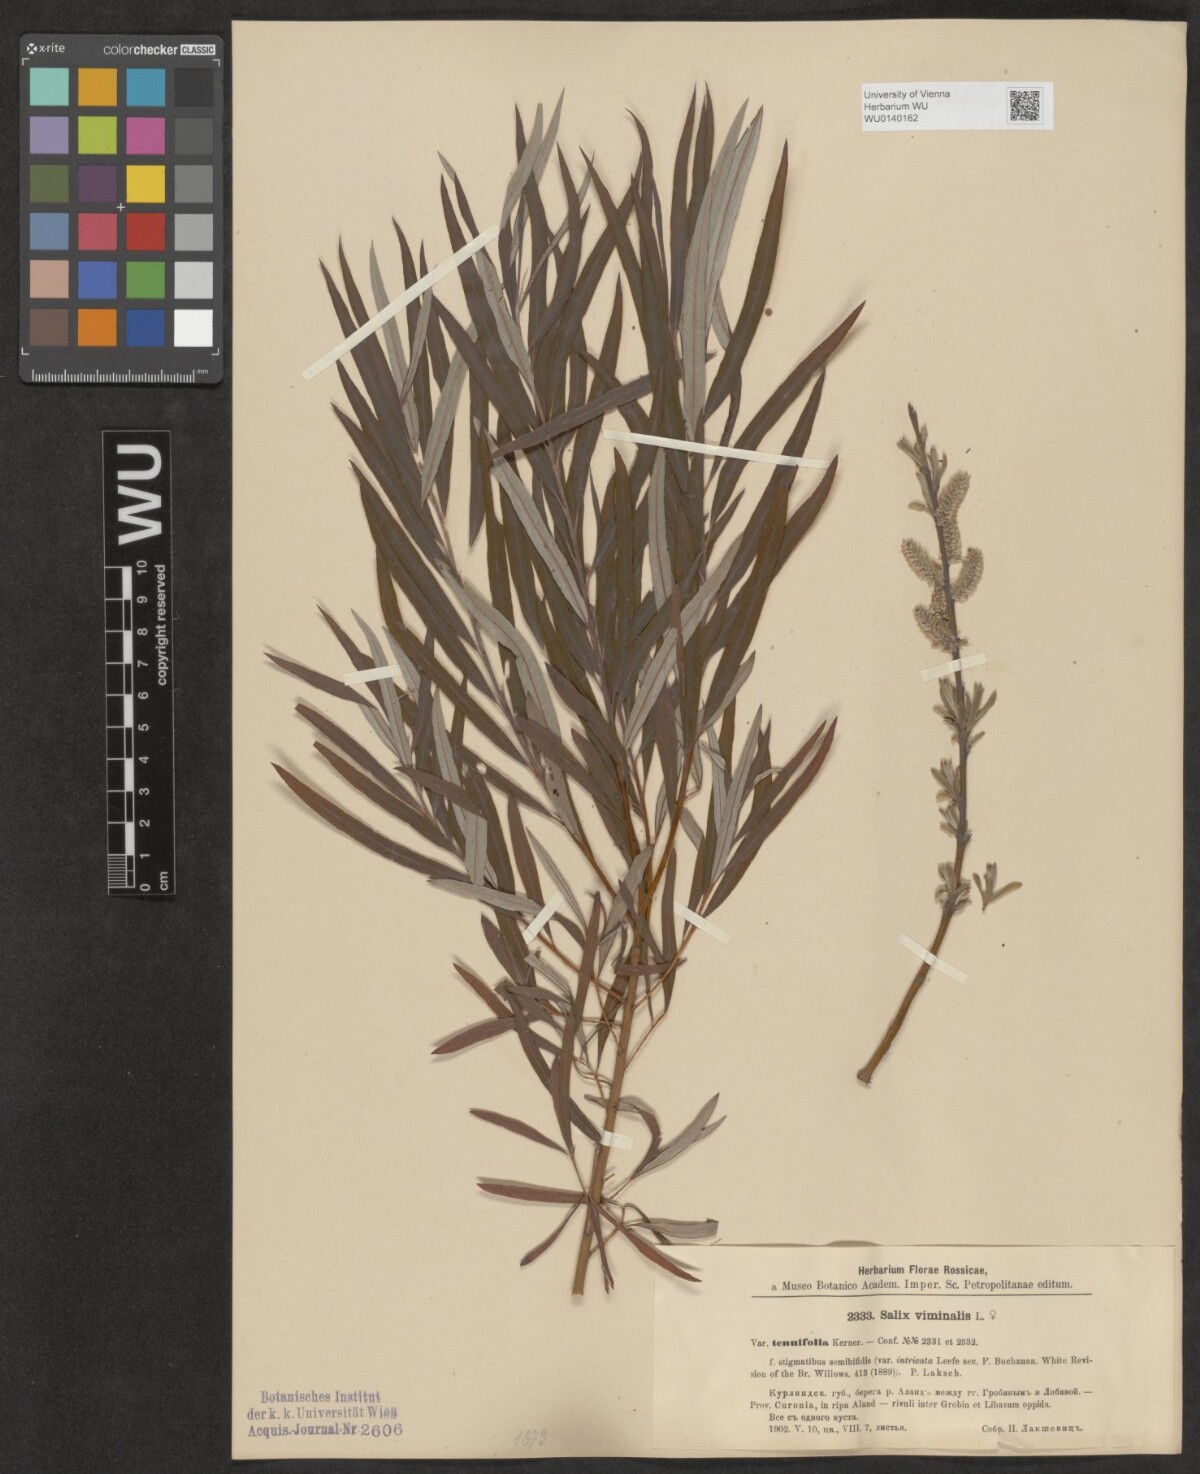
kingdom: Plantae
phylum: Tracheophyta
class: Magnoliopsida
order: Malpighiales
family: Salicaceae
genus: Salix
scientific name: Salix viminalis
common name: Osier
